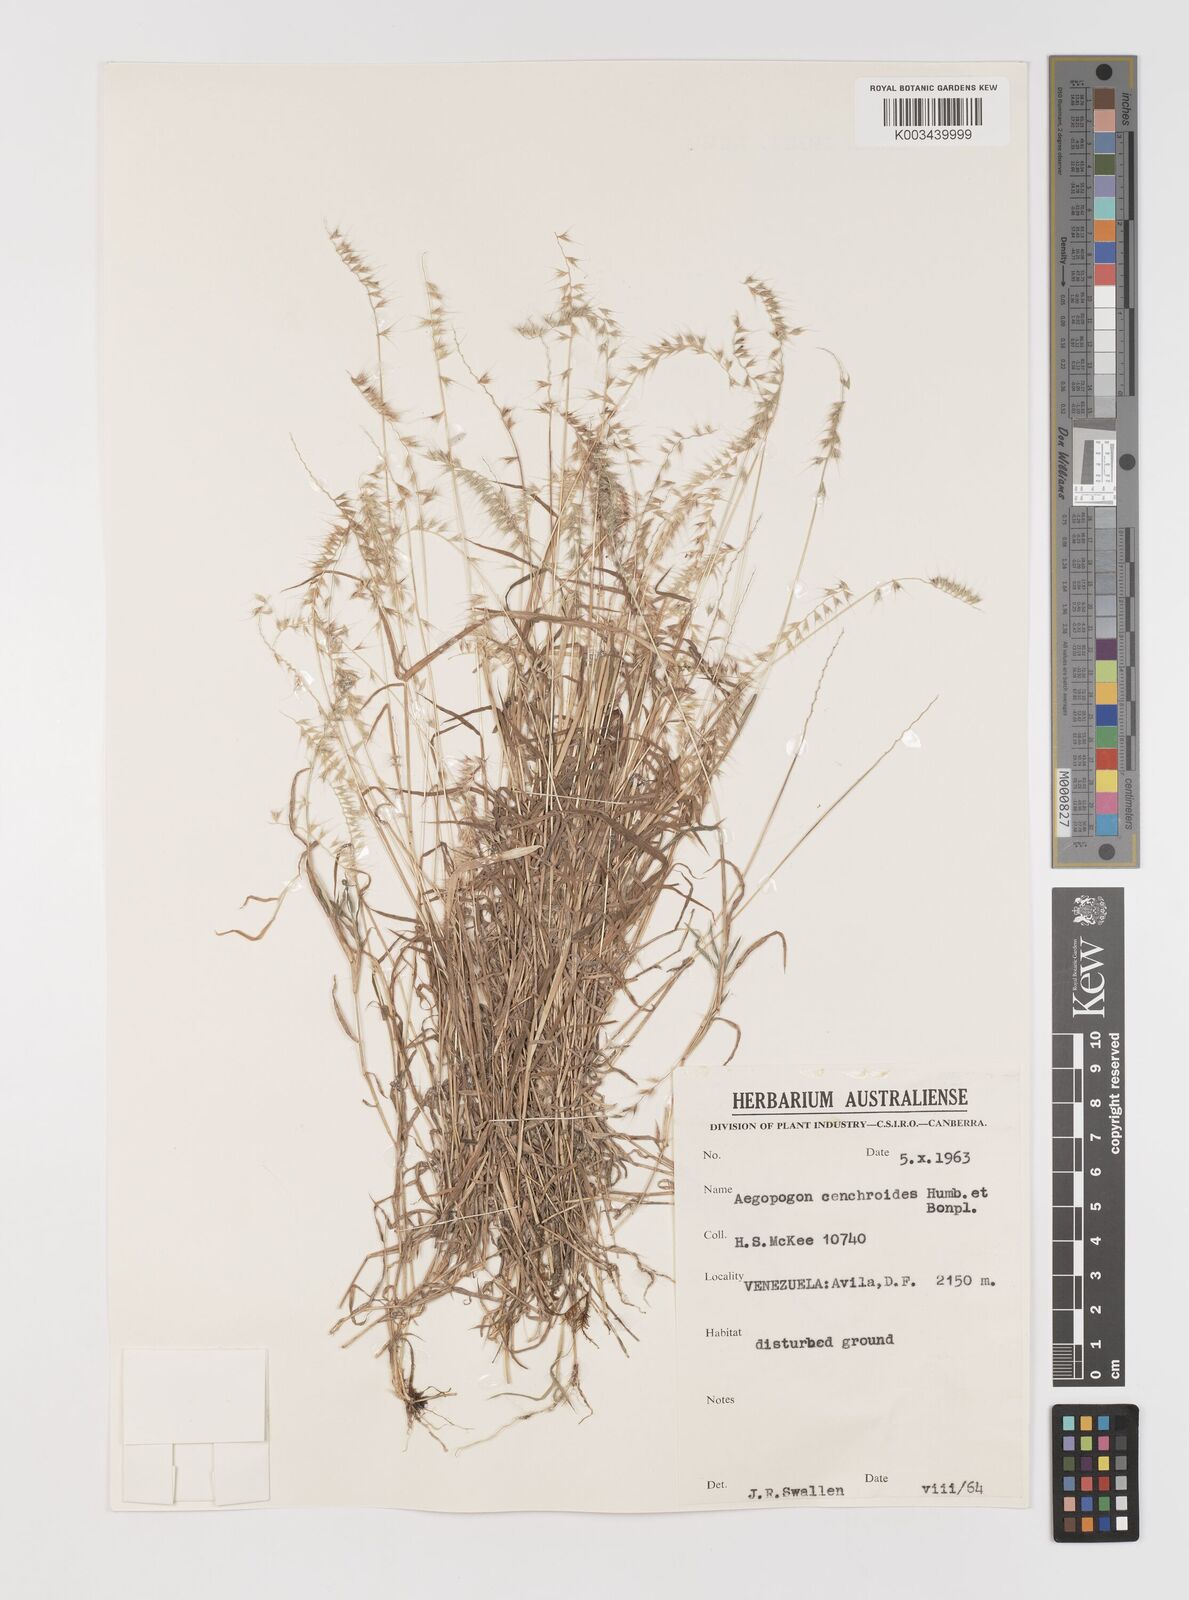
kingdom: Plantae
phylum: Tracheophyta
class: Liliopsida
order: Poales
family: Poaceae
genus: Muhlenbergia
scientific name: Muhlenbergia cenchroides
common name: Relaxgrass
